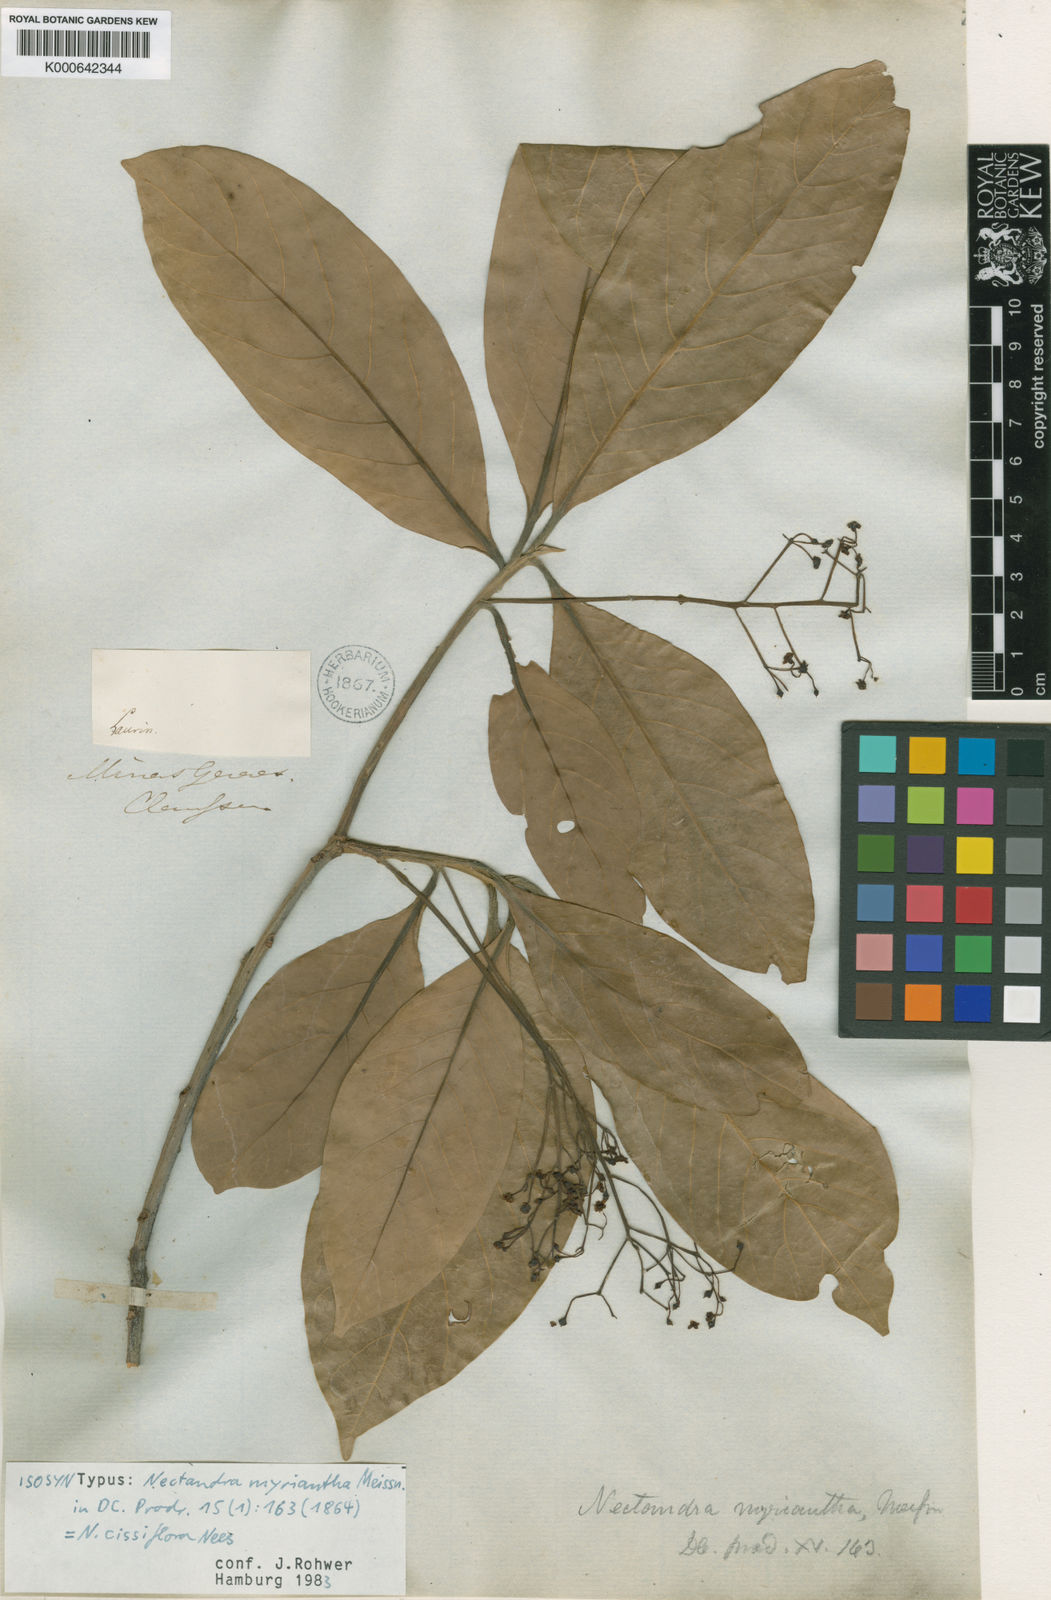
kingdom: Plantae
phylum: Tracheophyta
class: Magnoliopsida
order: Laurales
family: Lauraceae
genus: Nectandra
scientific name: Nectandra cissiflora
